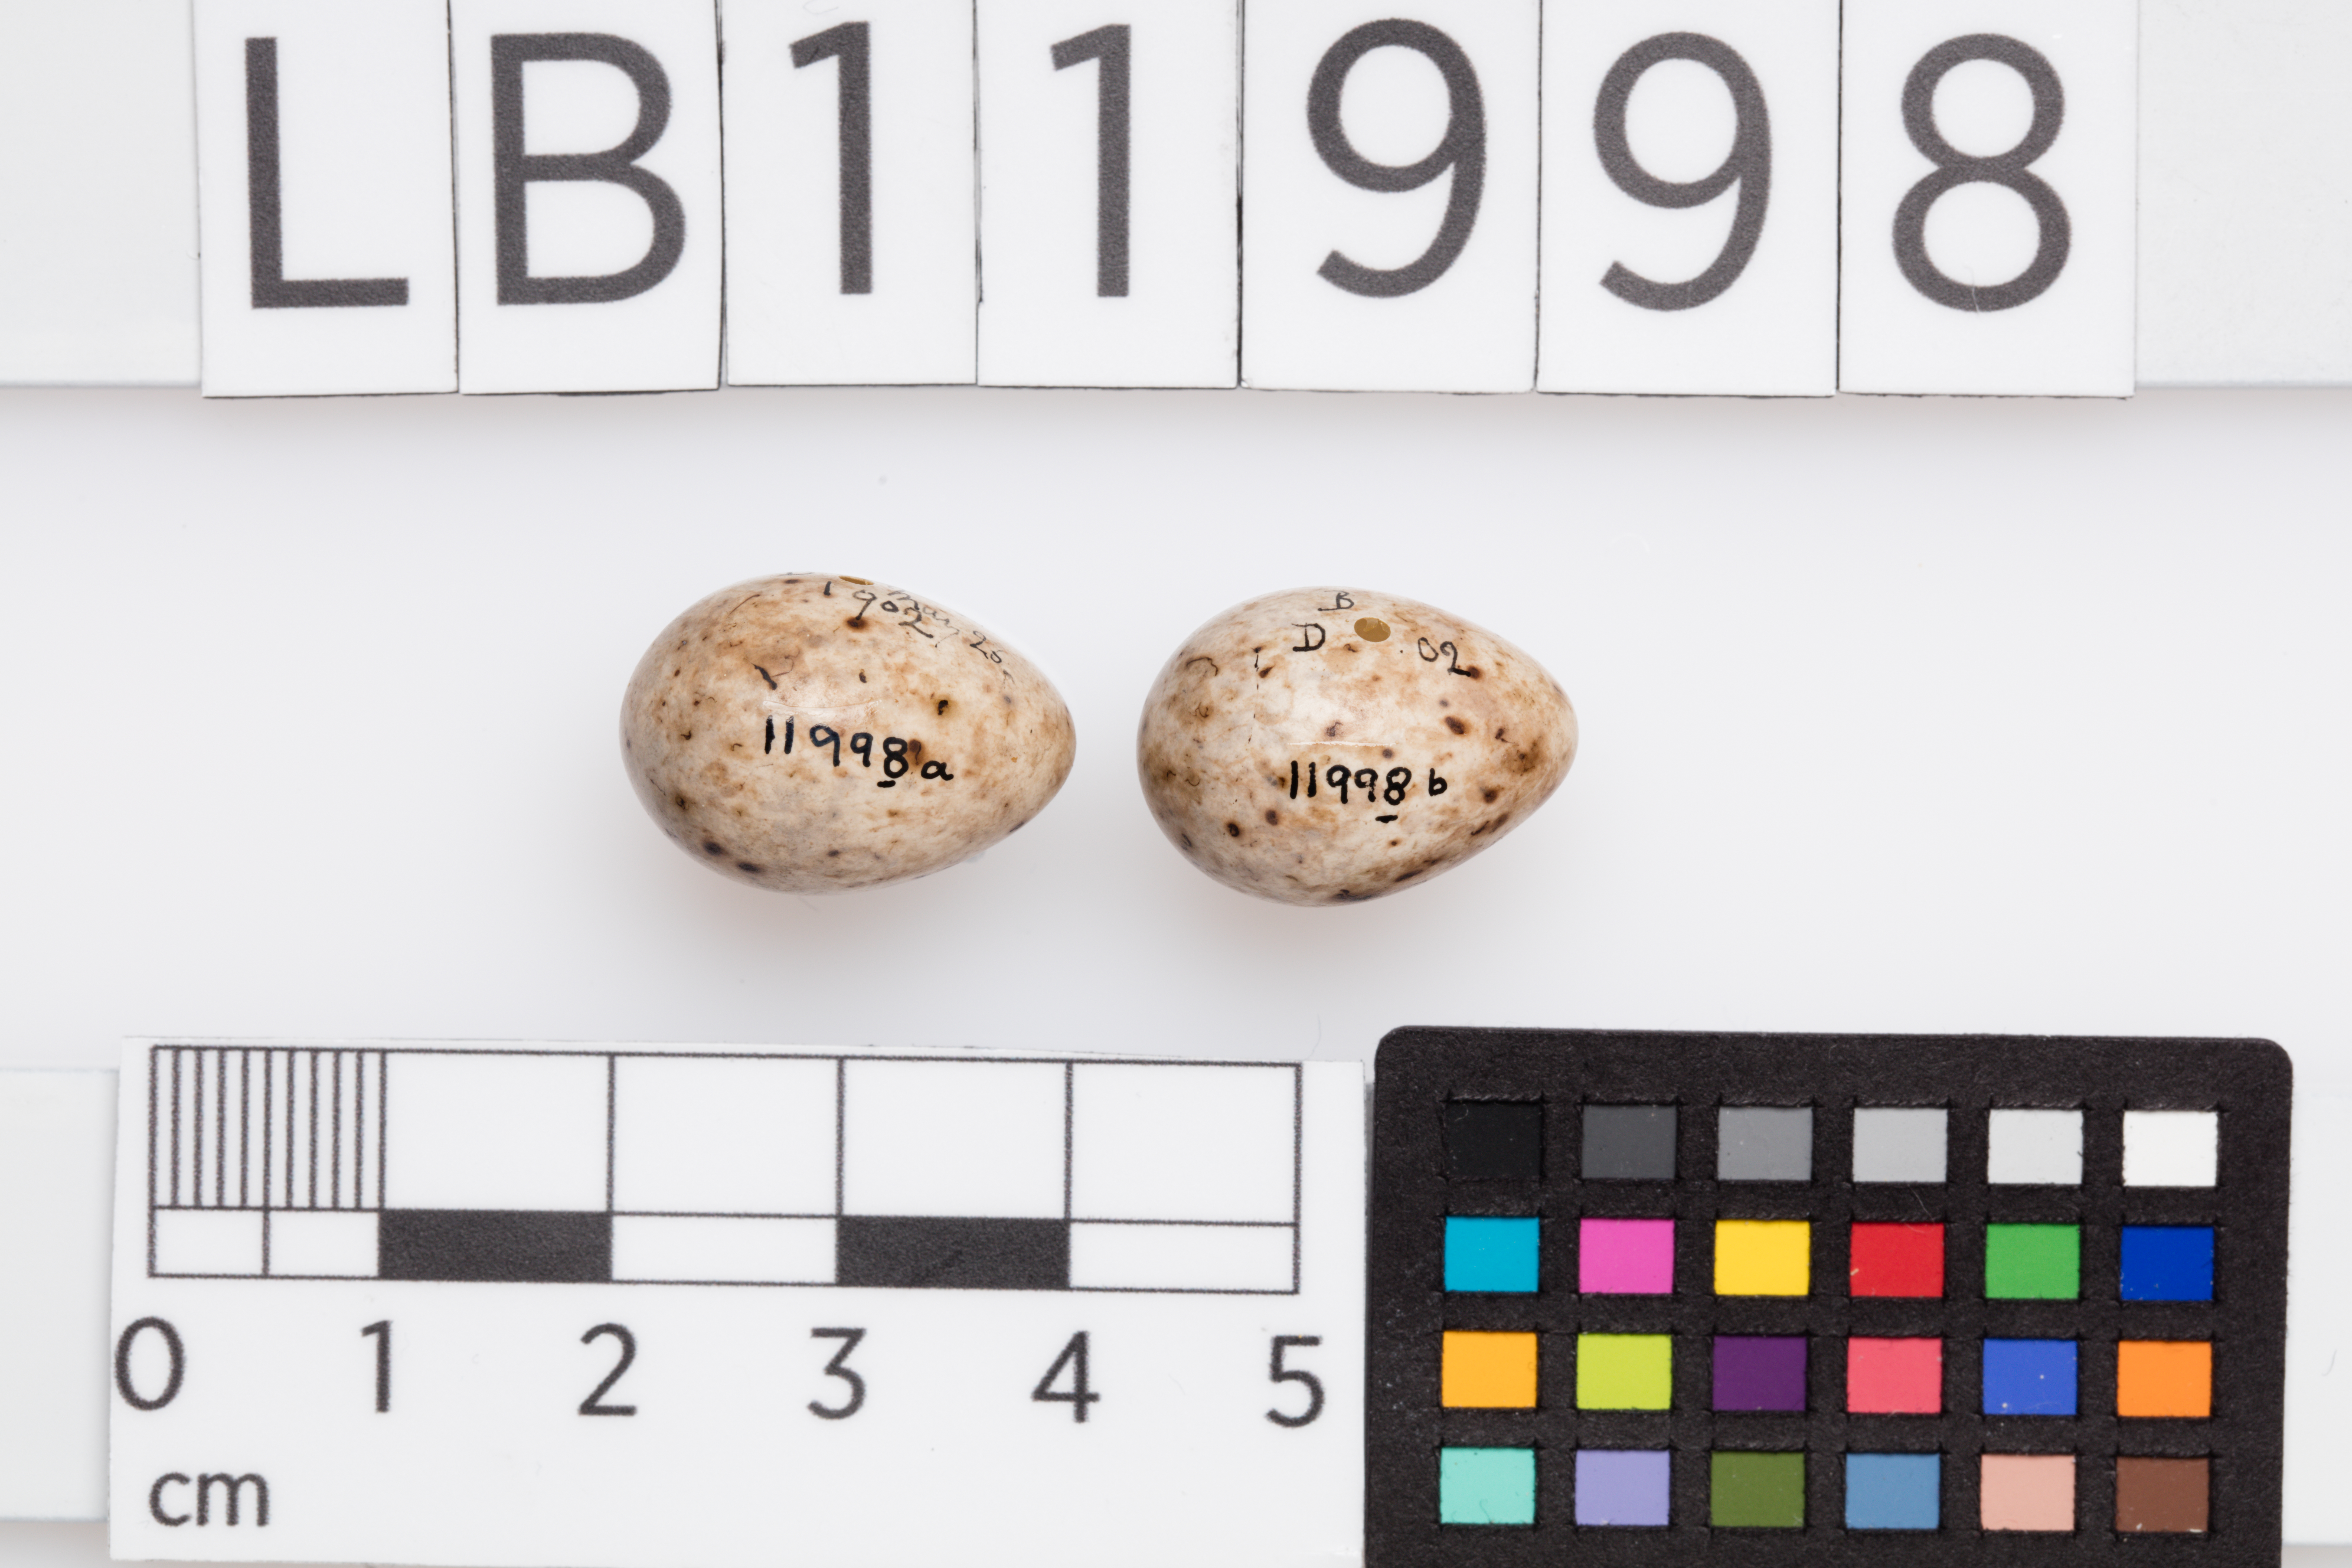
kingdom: Animalia
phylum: Chordata
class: Aves
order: Passeriformes
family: Sylviidae
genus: Sylvia
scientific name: Sylvia atricapilla
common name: Eurasian blackcap
